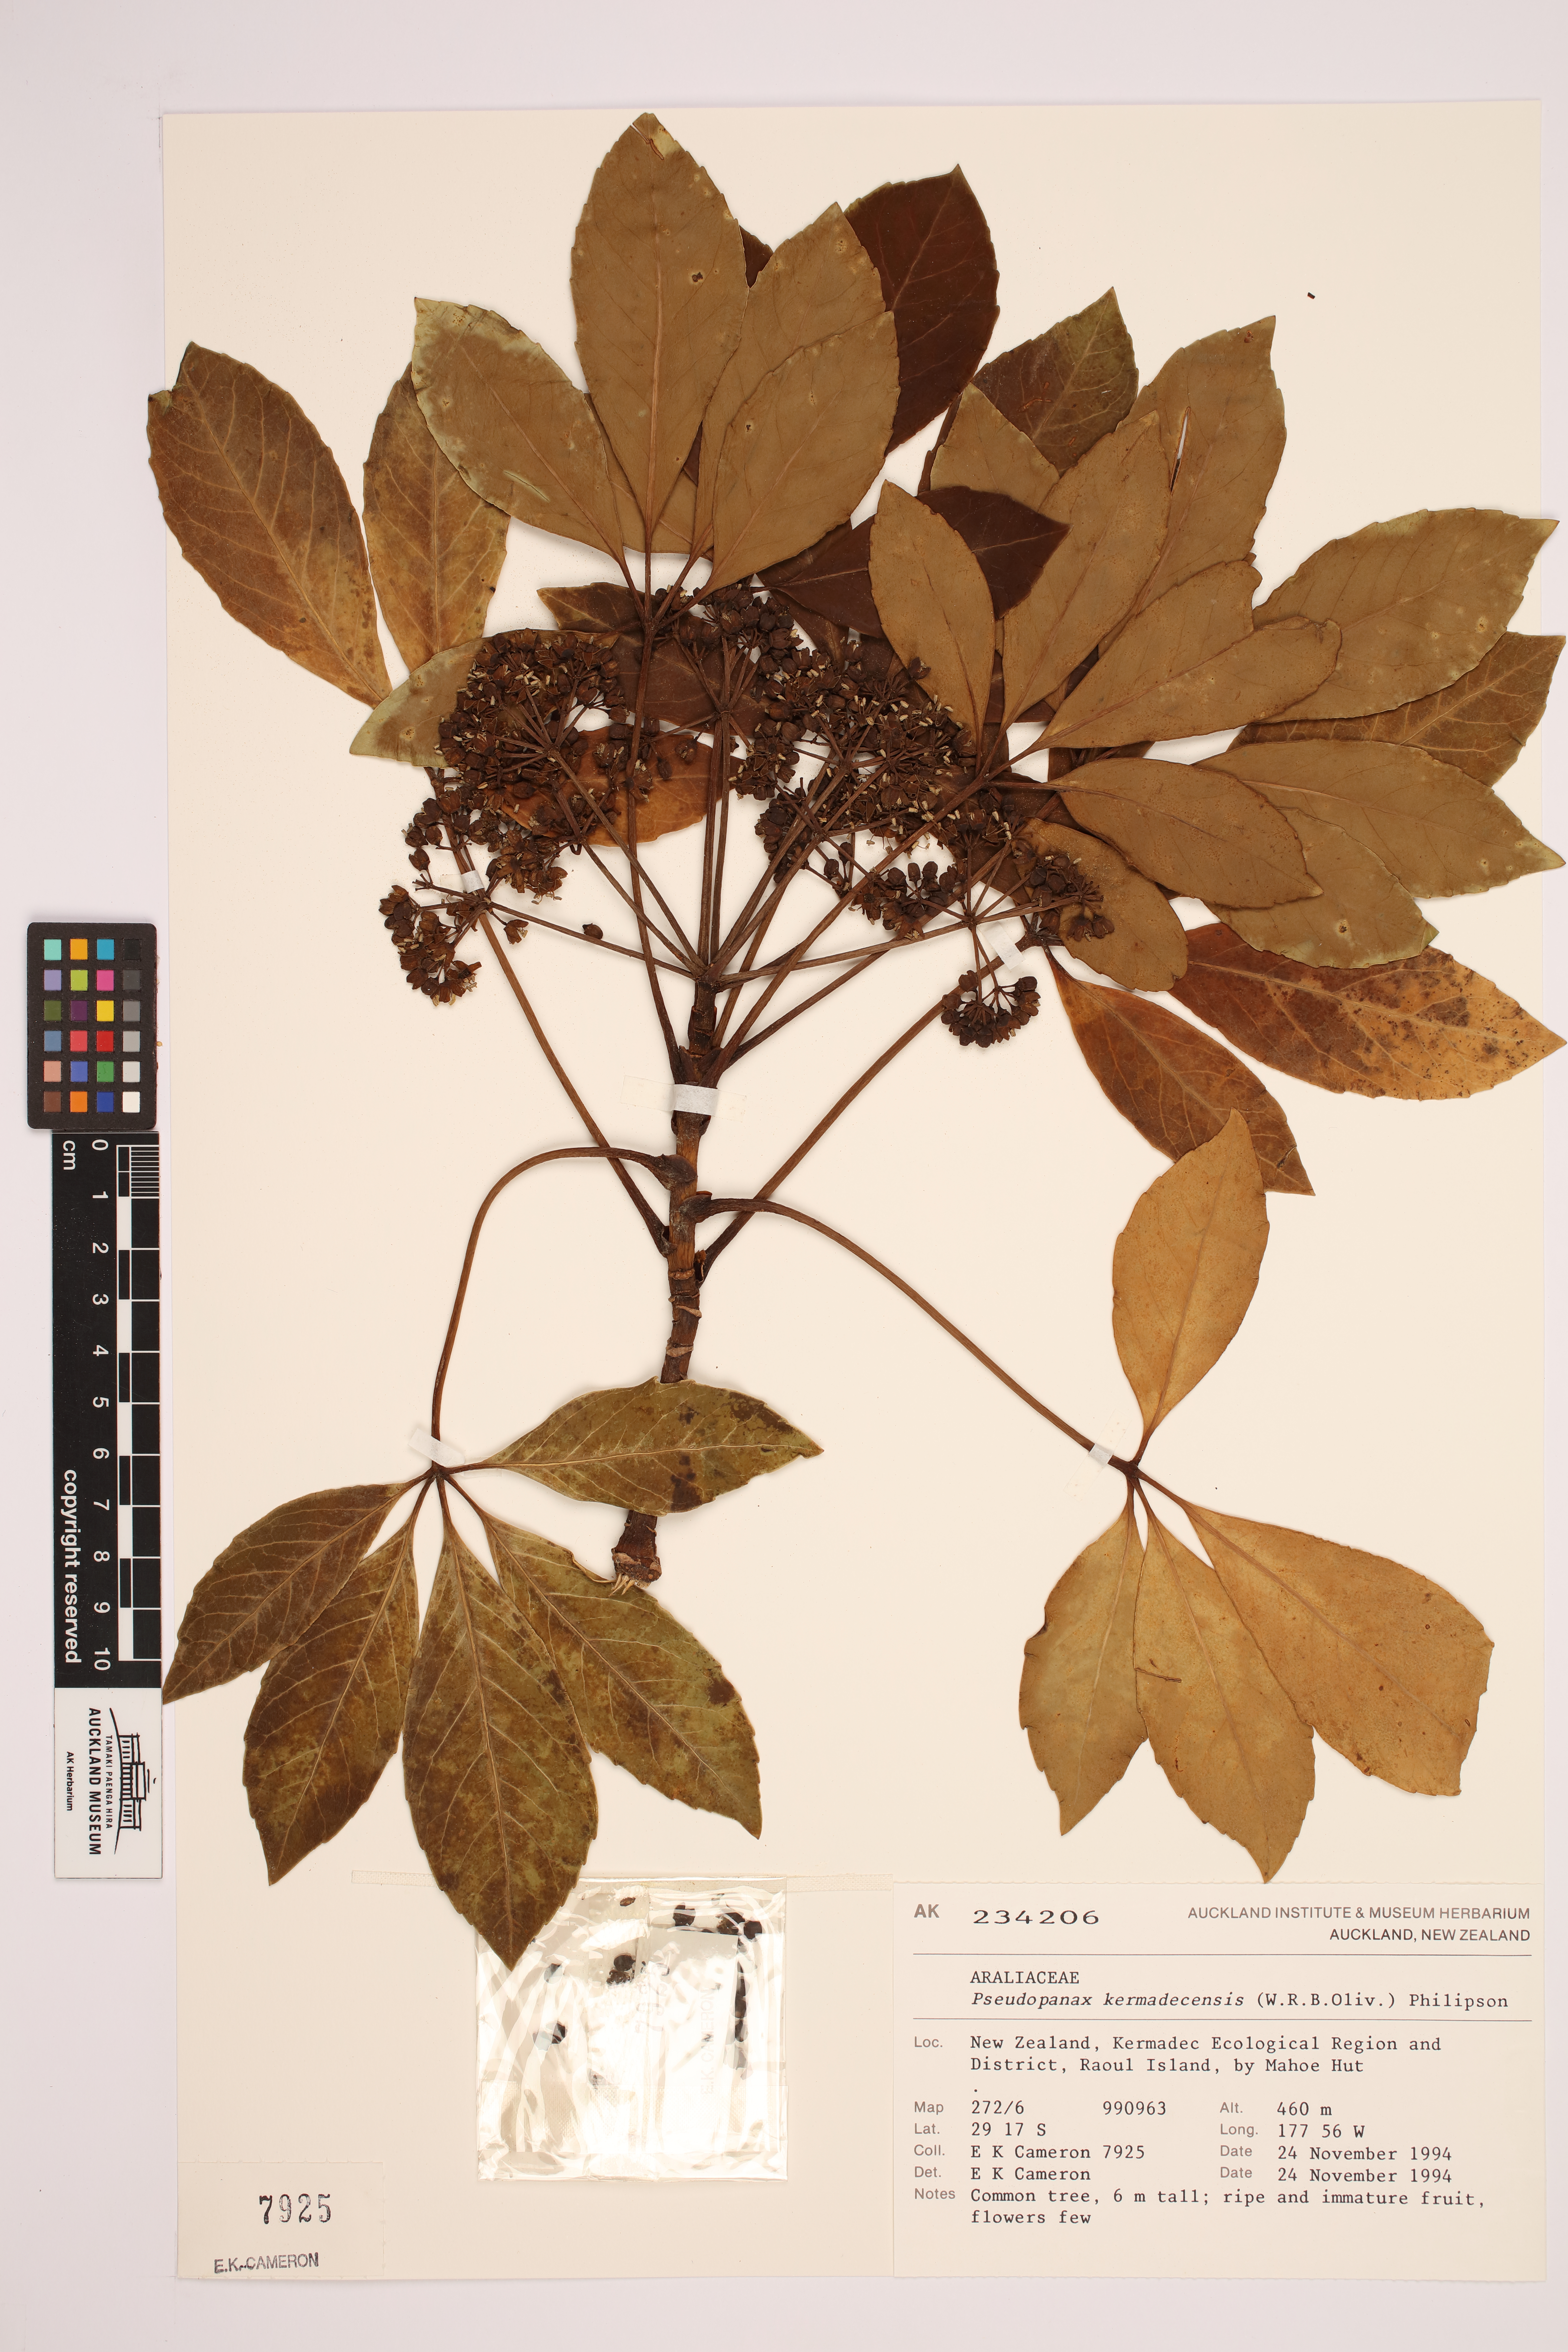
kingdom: Plantae
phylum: Tracheophyta
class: Magnoliopsida
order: Apiales
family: Araliaceae
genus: Neopanax
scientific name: Neopanax kermadecense
